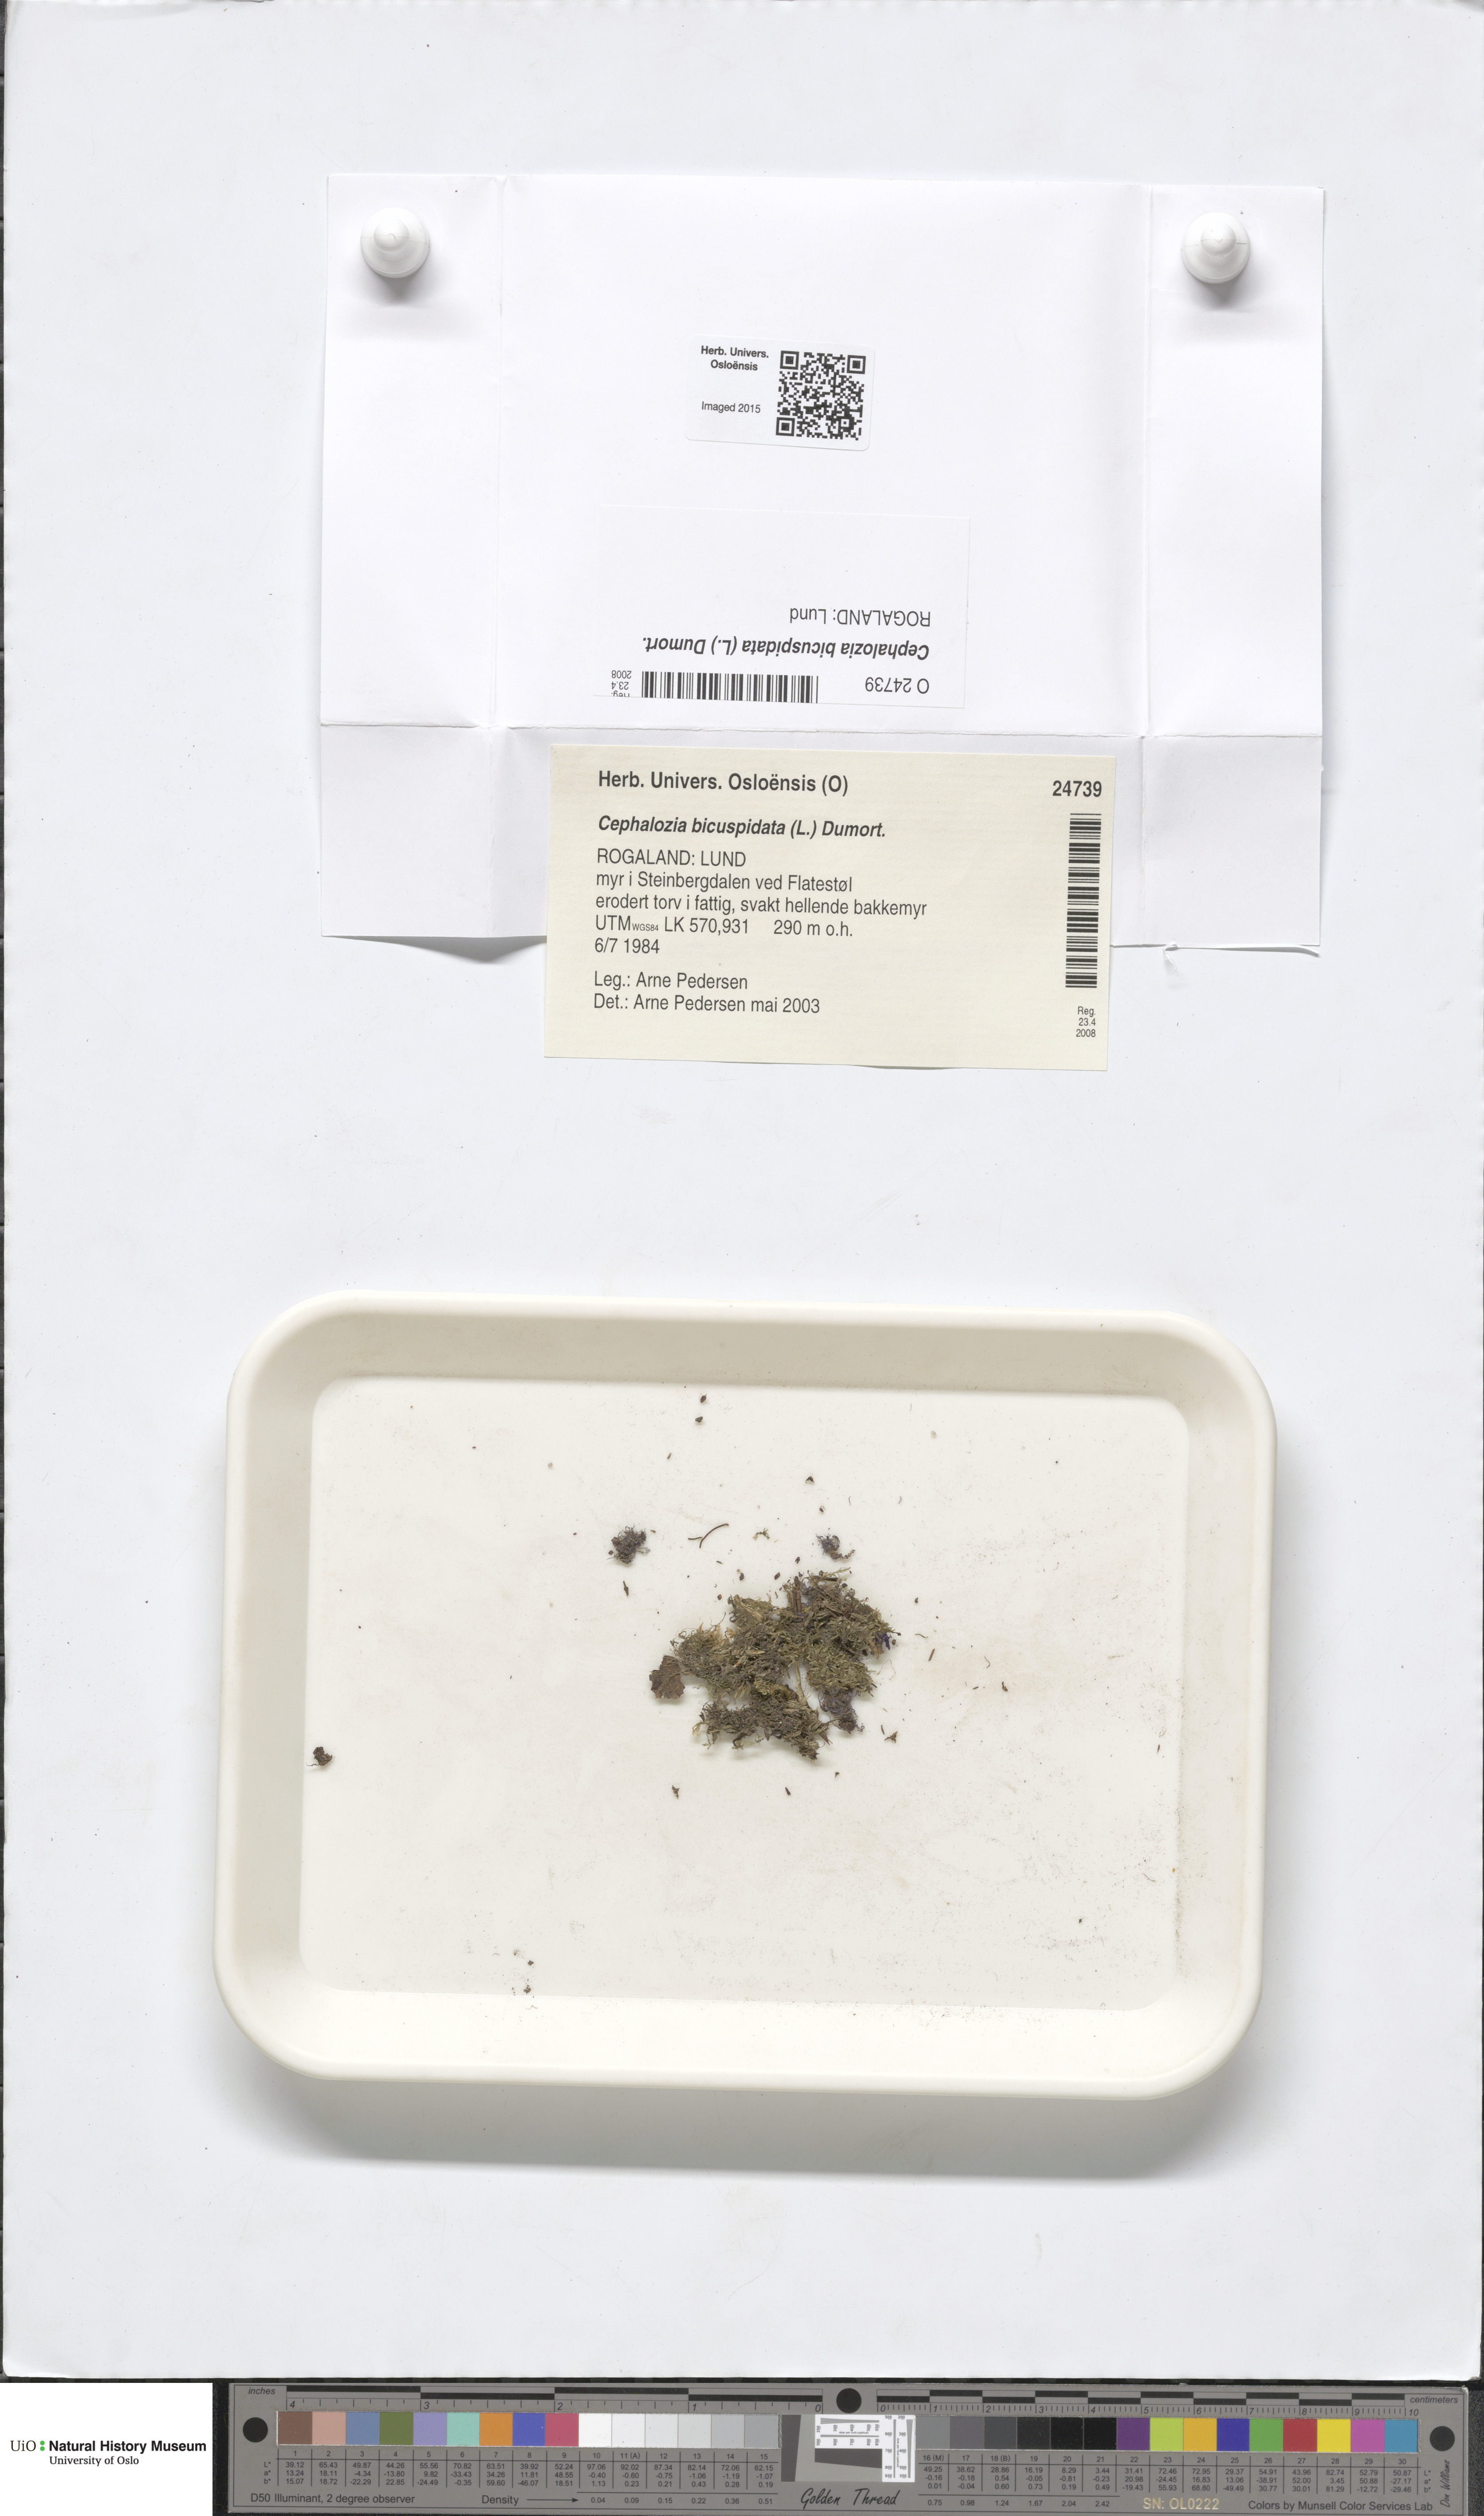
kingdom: Plantae
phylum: Marchantiophyta
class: Jungermanniopsida
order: Jungermanniales
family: Cephaloziaceae
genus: Cephalozia
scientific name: Cephalozia bicuspidata
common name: Two-horned pincerwort
